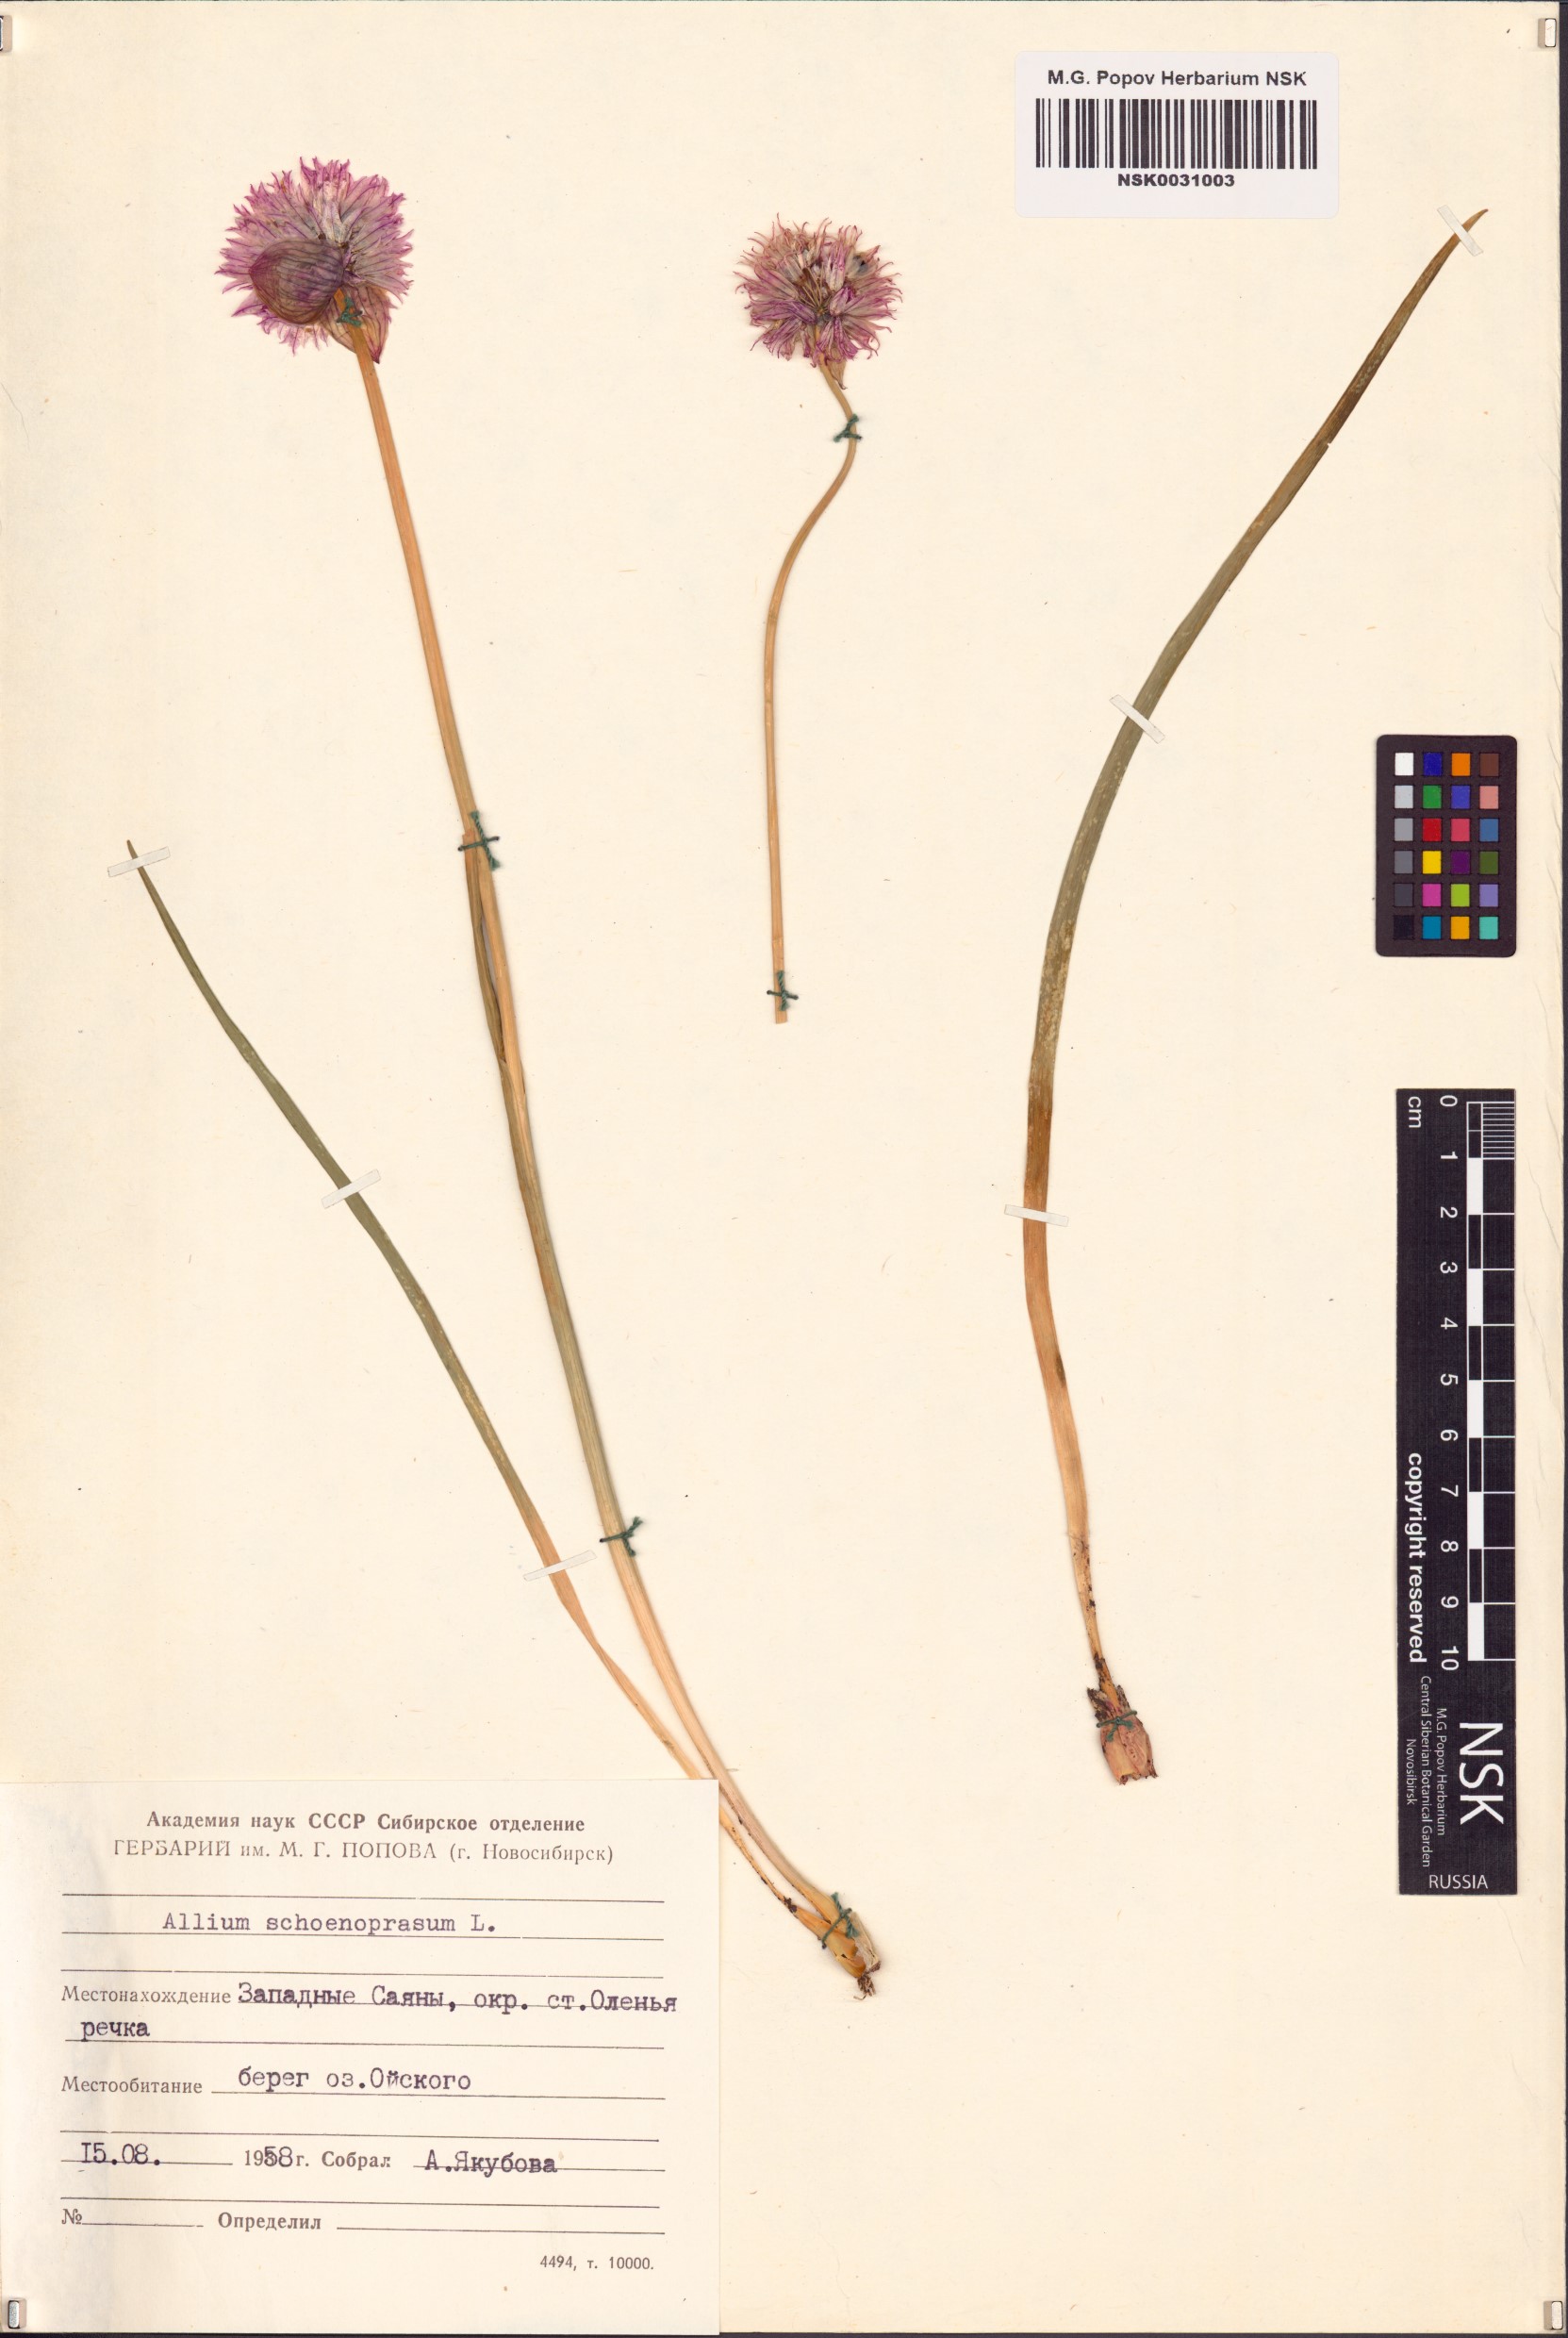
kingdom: Plantae
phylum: Tracheophyta
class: Liliopsida
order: Asparagales
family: Amaryllidaceae
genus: Allium
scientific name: Allium schoenoprasum
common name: Chives
